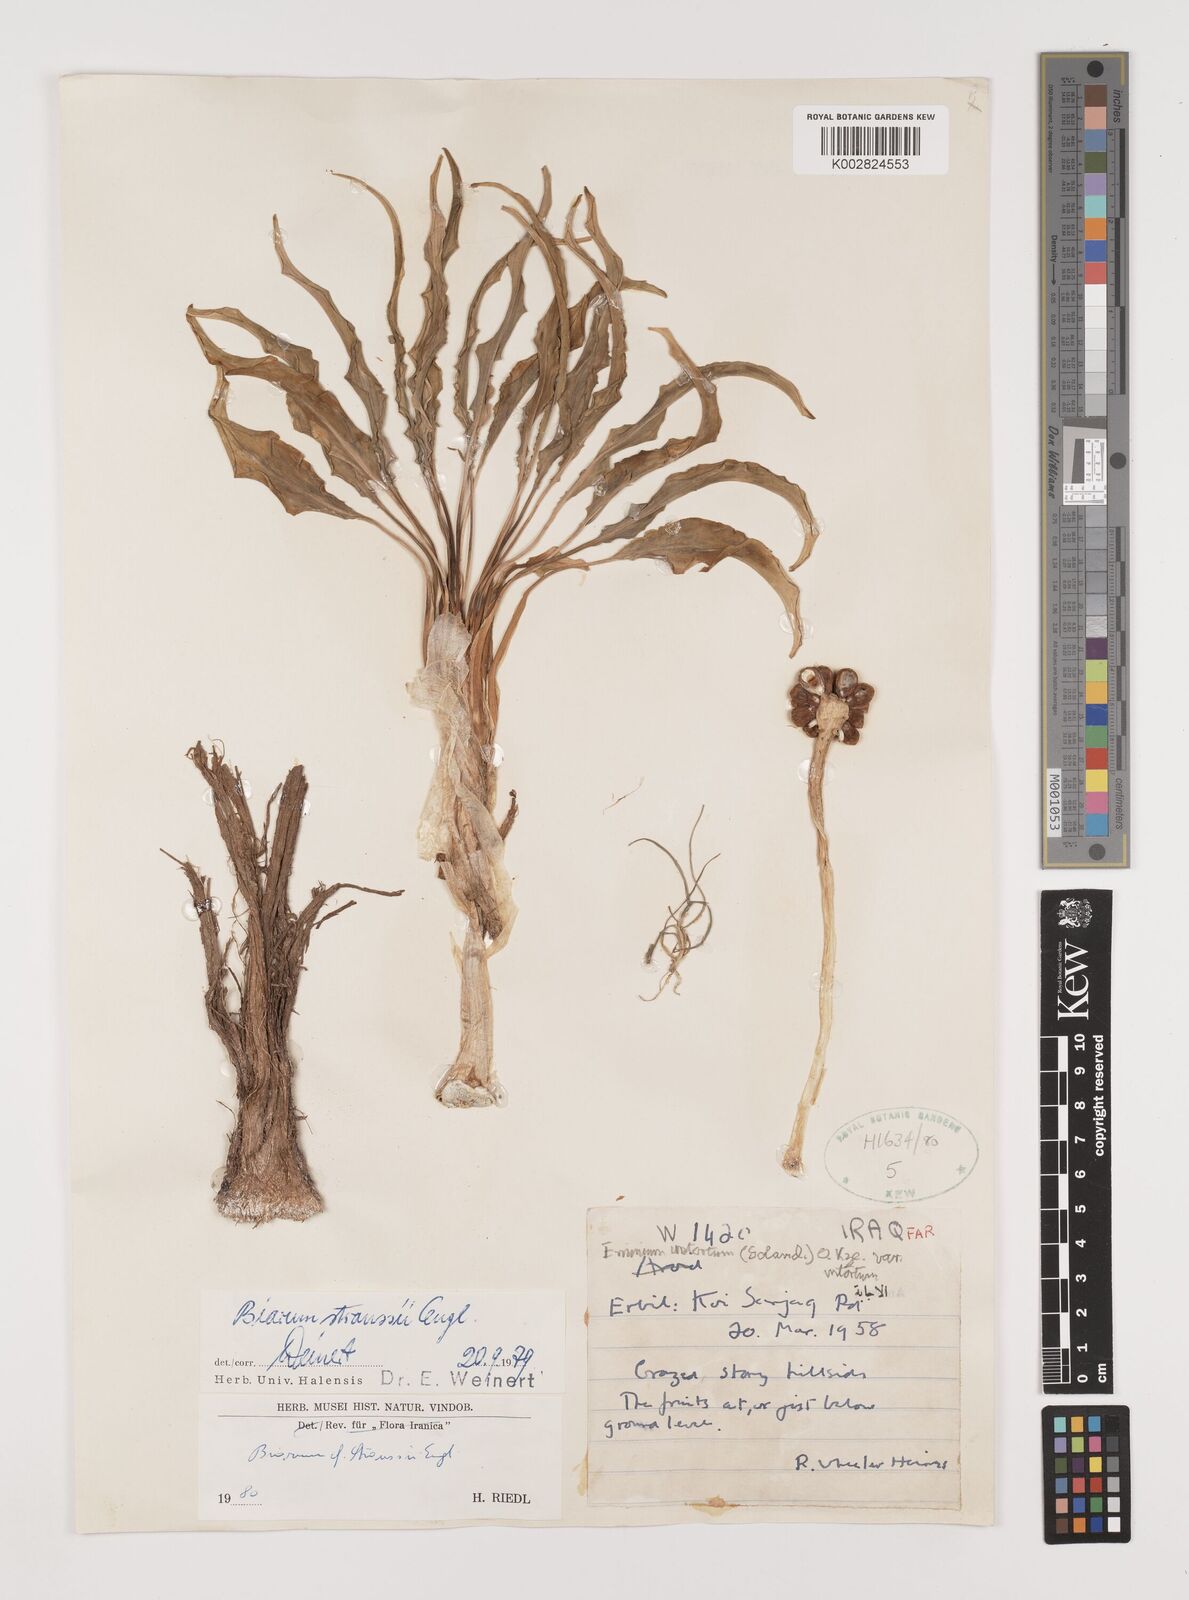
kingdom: Plantae
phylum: Tracheophyta
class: Liliopsida
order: Alismatales
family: Araceae
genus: Biarum
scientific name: Biarum straussii
